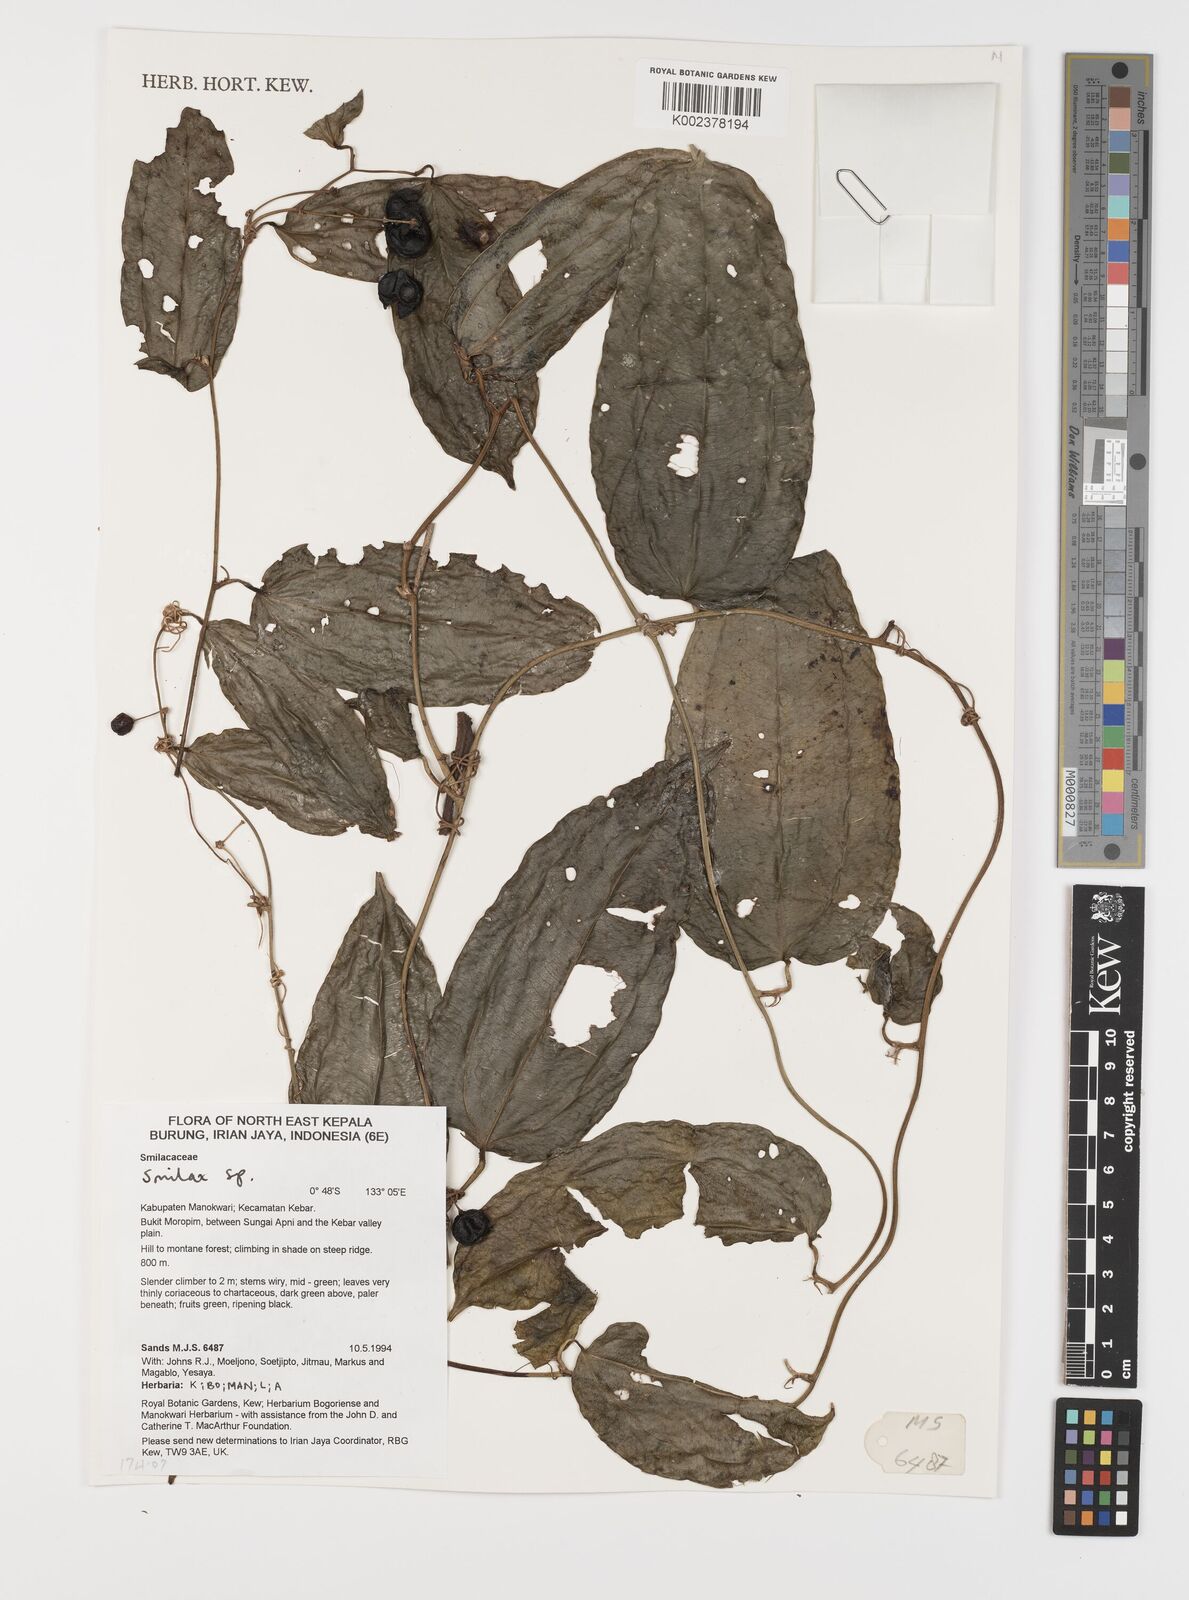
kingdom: Plantae
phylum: Tracheophyta
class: Liliopsida
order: Liliales
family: Smilacaceae
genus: Smilax
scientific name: Smilax
